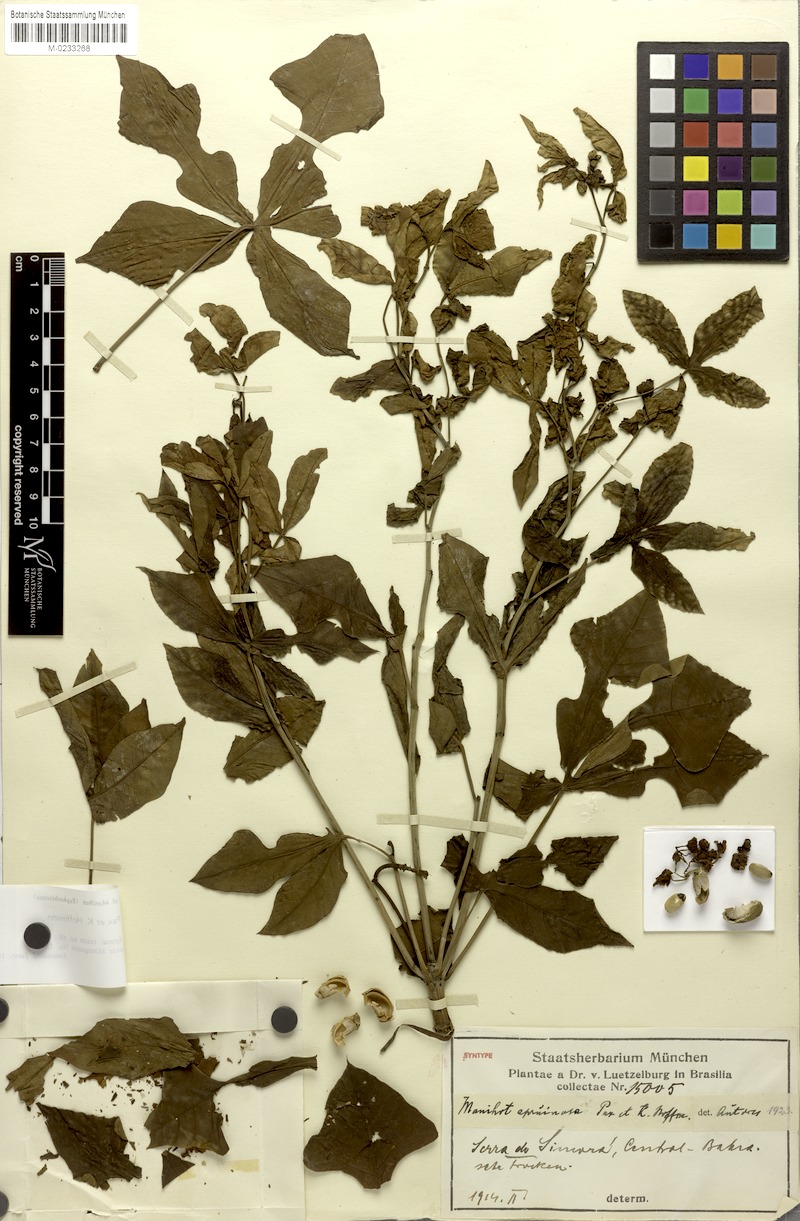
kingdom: Plantae
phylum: Tracheophyta
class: Magnoliopsida
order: Malpighiales
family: Euphorbiaceae
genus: Manihot
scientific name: Manihot epruinosa
